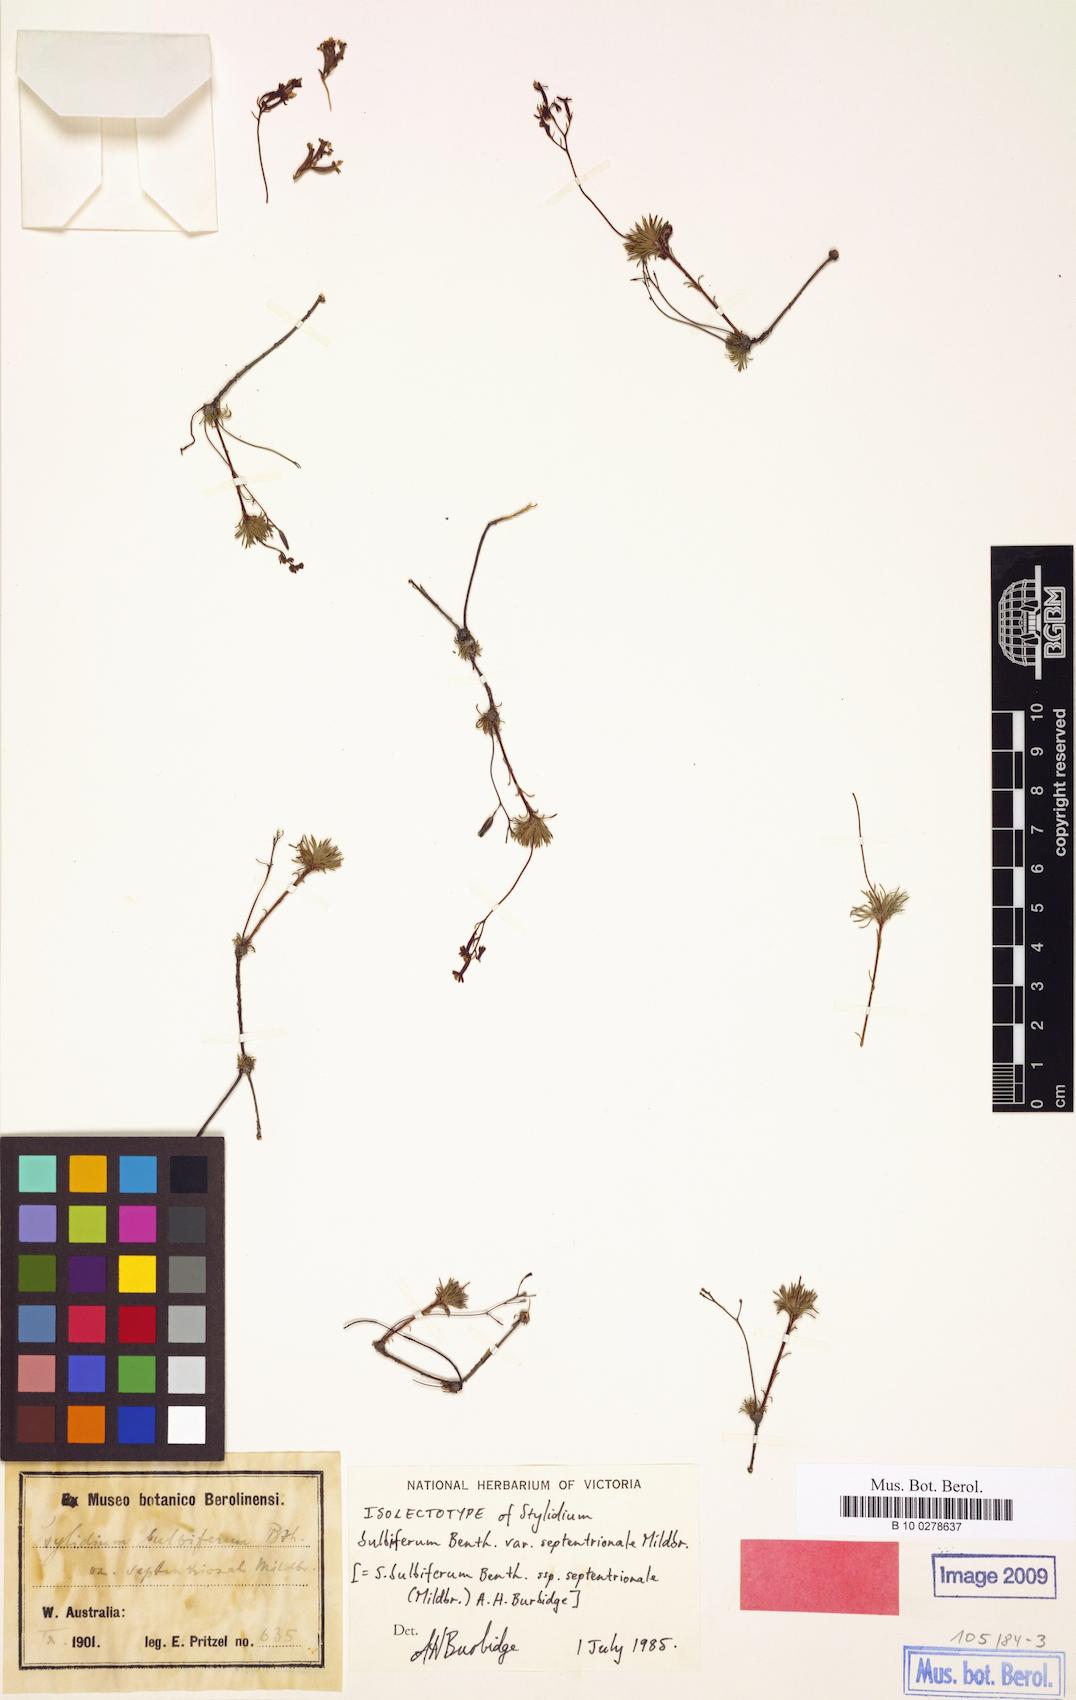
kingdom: Plantae
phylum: Tracheophyta
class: Magnoliopsida
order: Asterales
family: Stylidiaceae
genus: Stylidium
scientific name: Stylidium septentrionale
